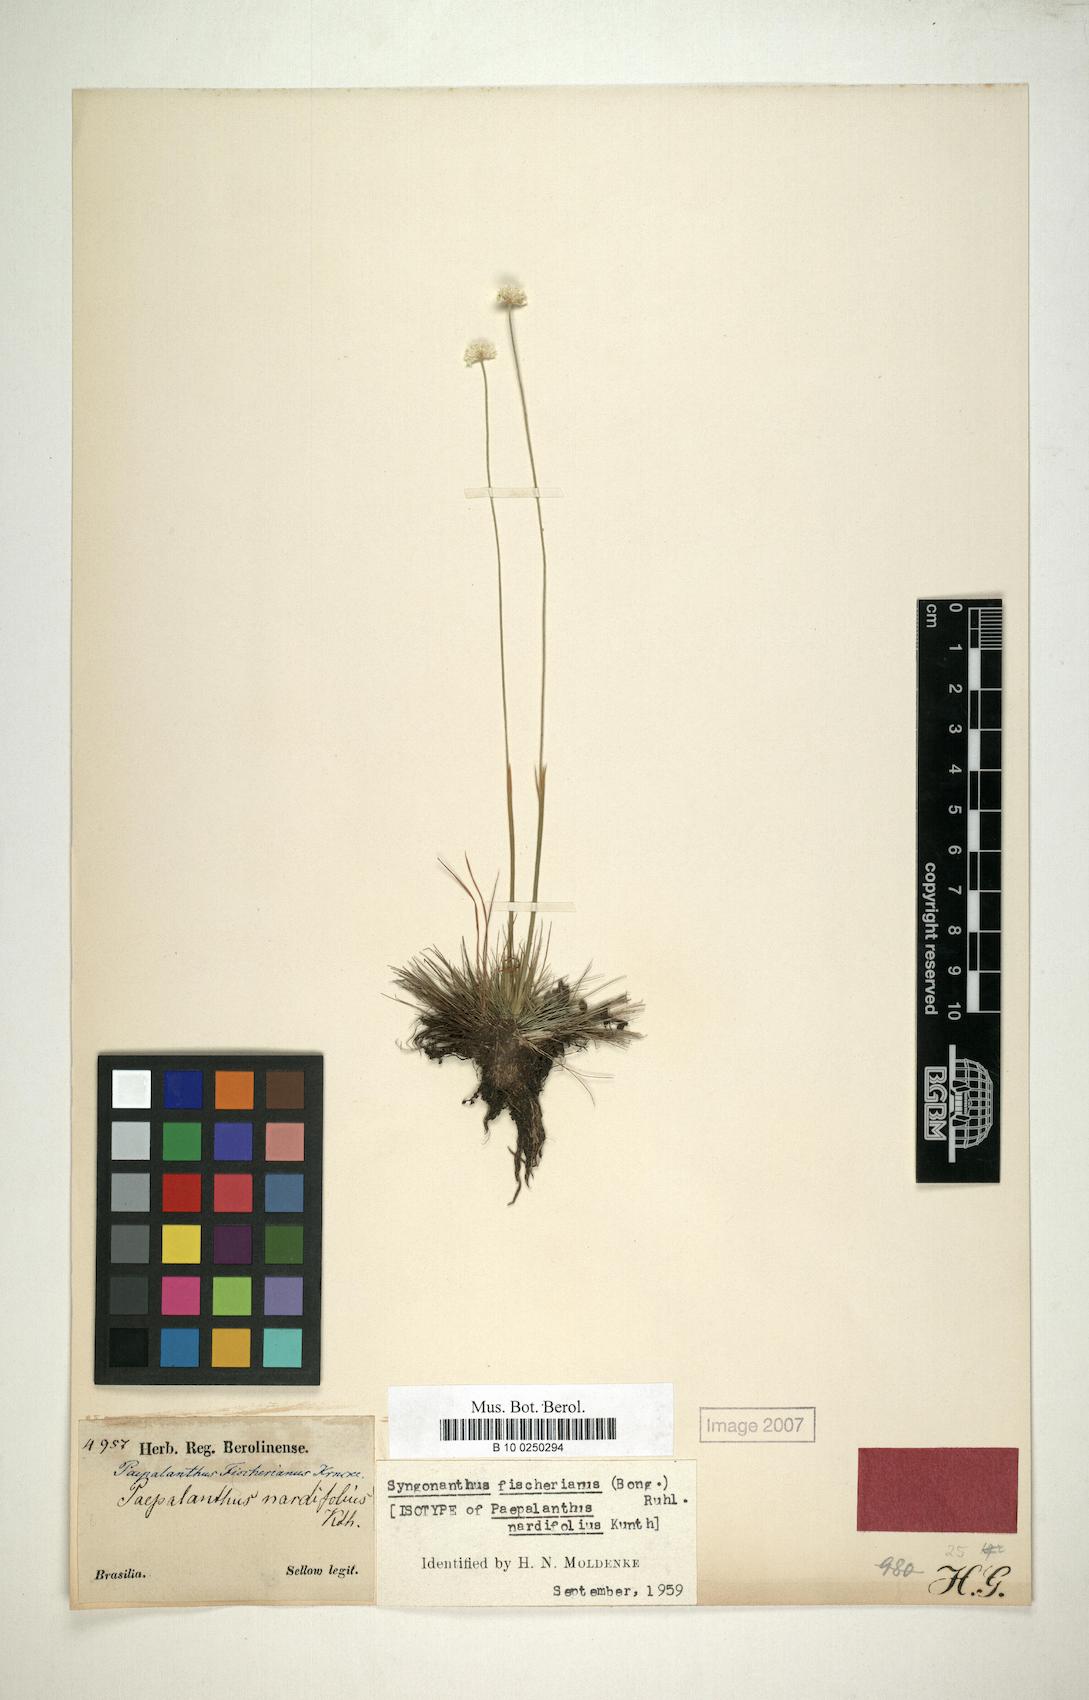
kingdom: Plantae
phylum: Tracheophyta
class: Liliopsida
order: Poales
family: Eriocaulaceae
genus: Syngonanthus
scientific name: Syngonanthus fischerianus
